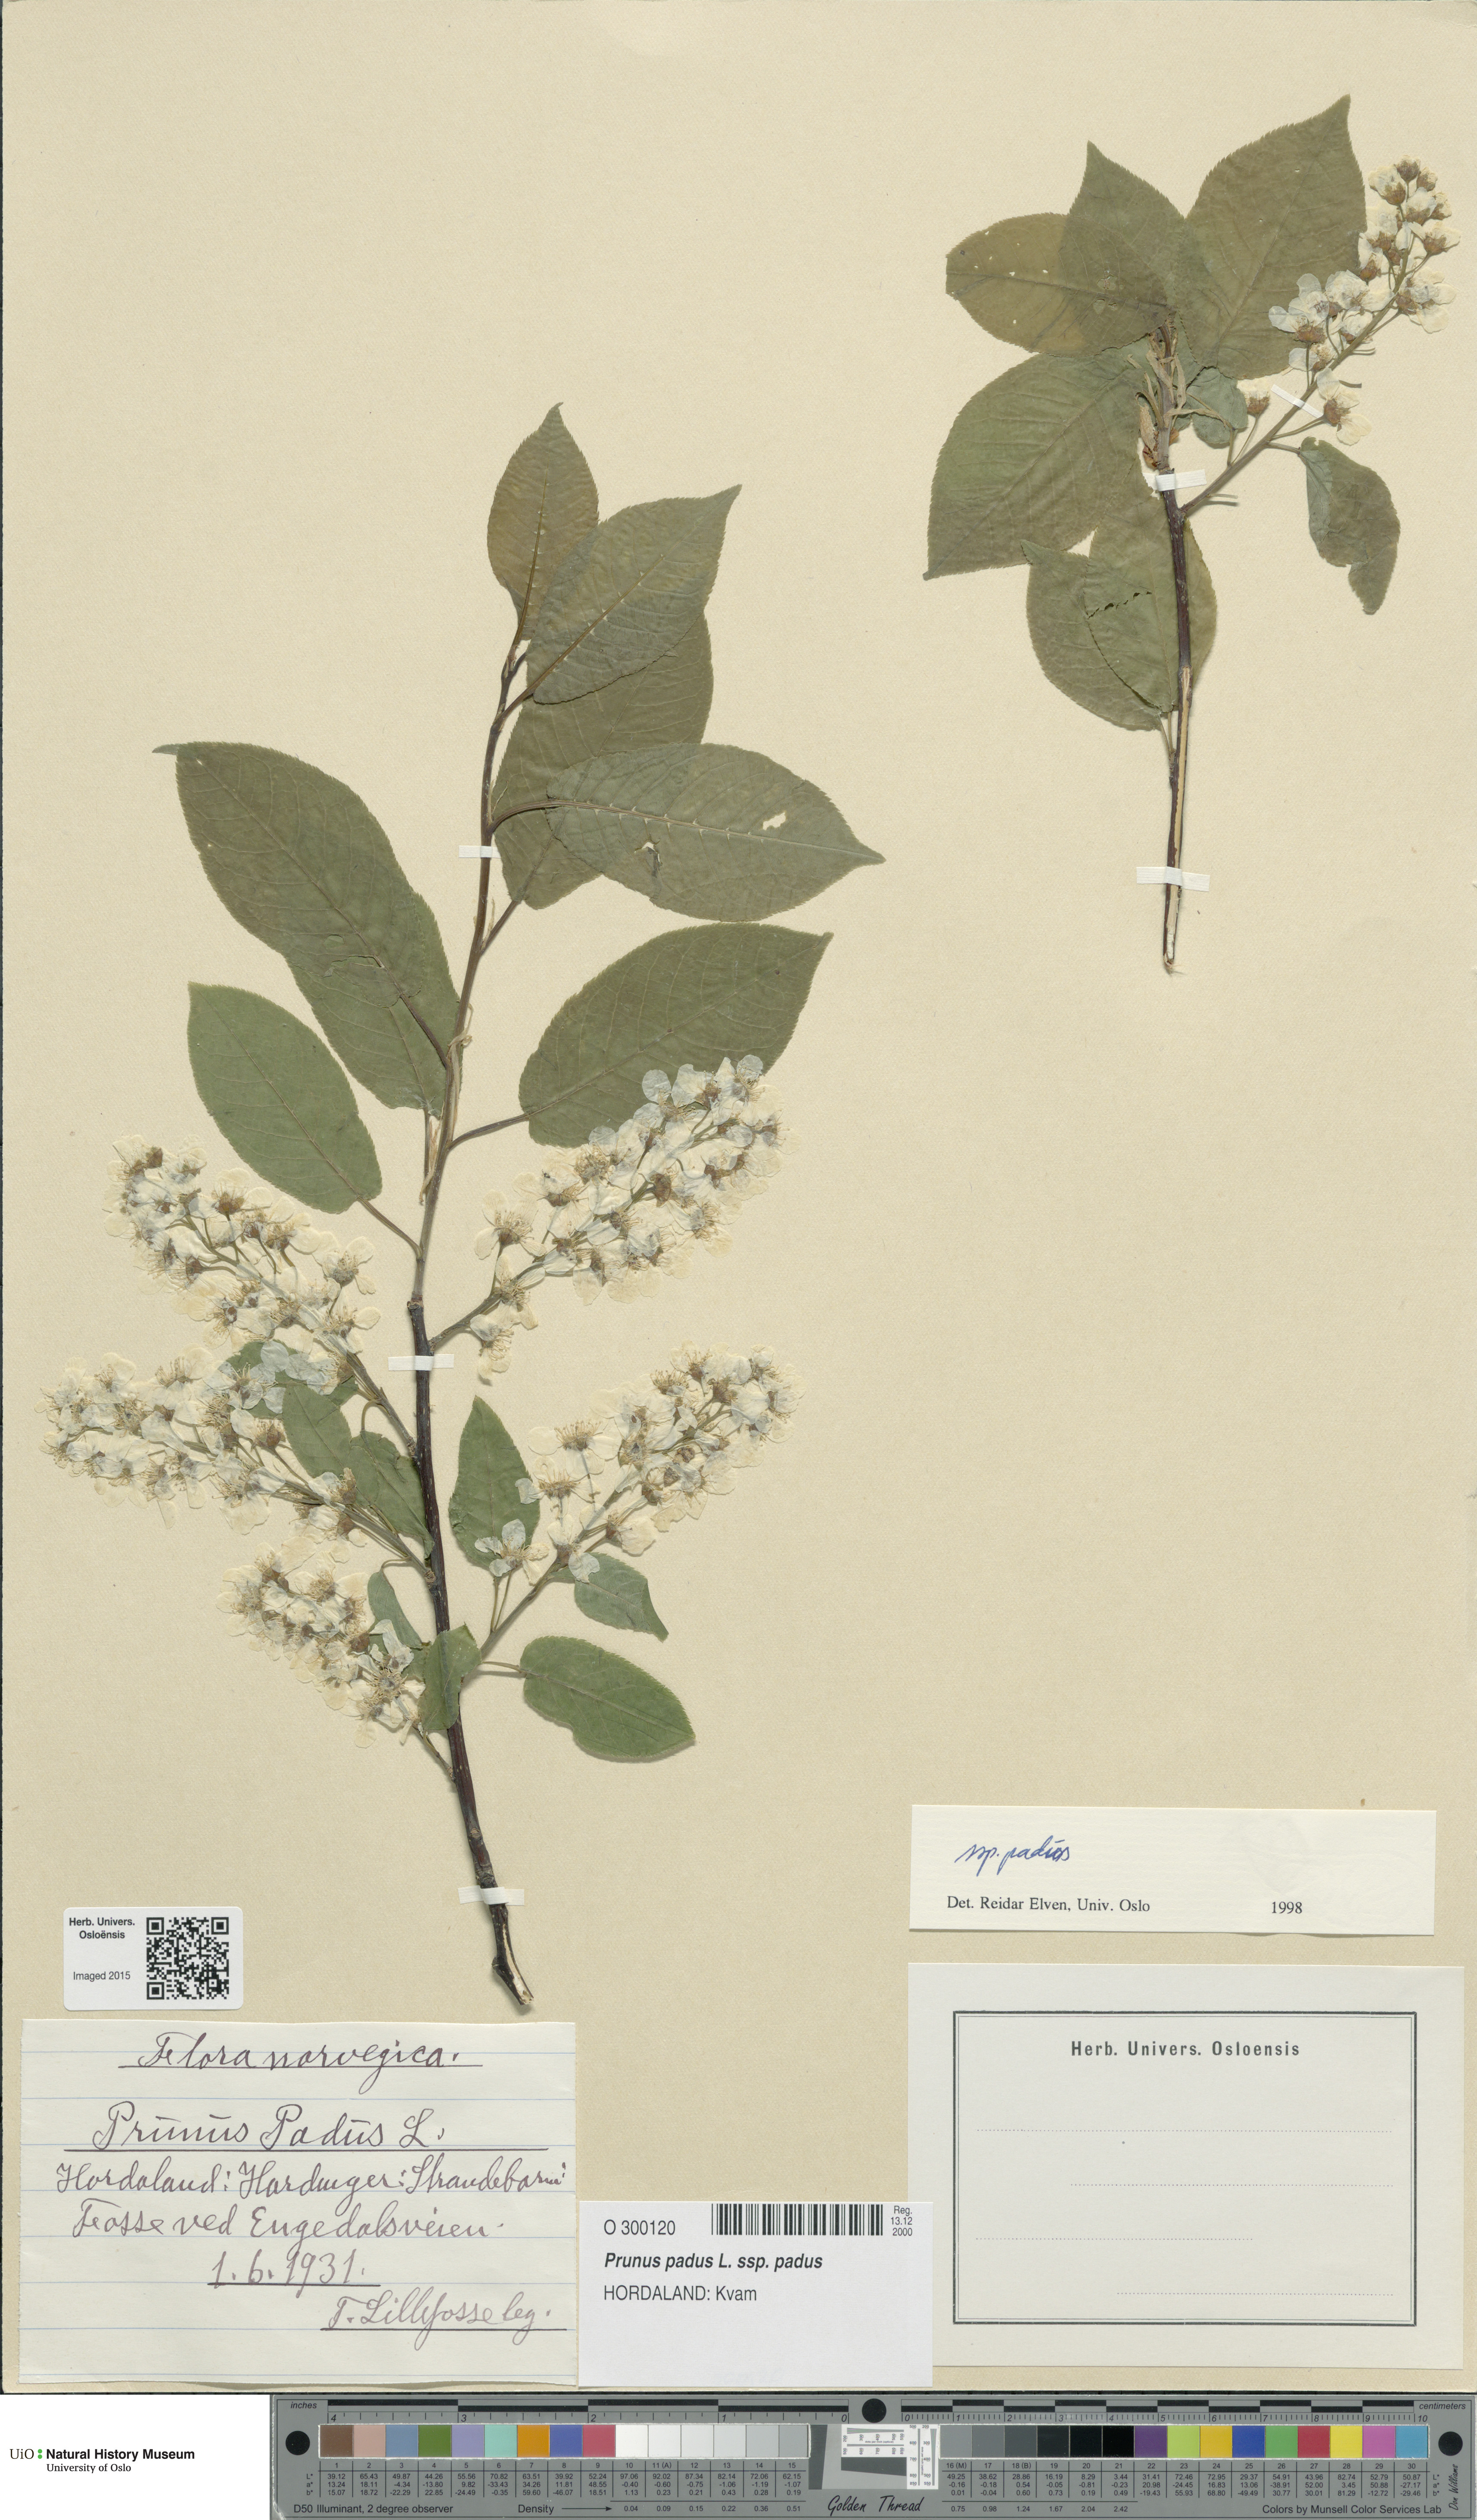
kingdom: Plantae
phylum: Tracheophyta
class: Magnoliopsida
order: Rosales
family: Rosaceae
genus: Prunus
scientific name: Prunus padus
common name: Bird cherry
